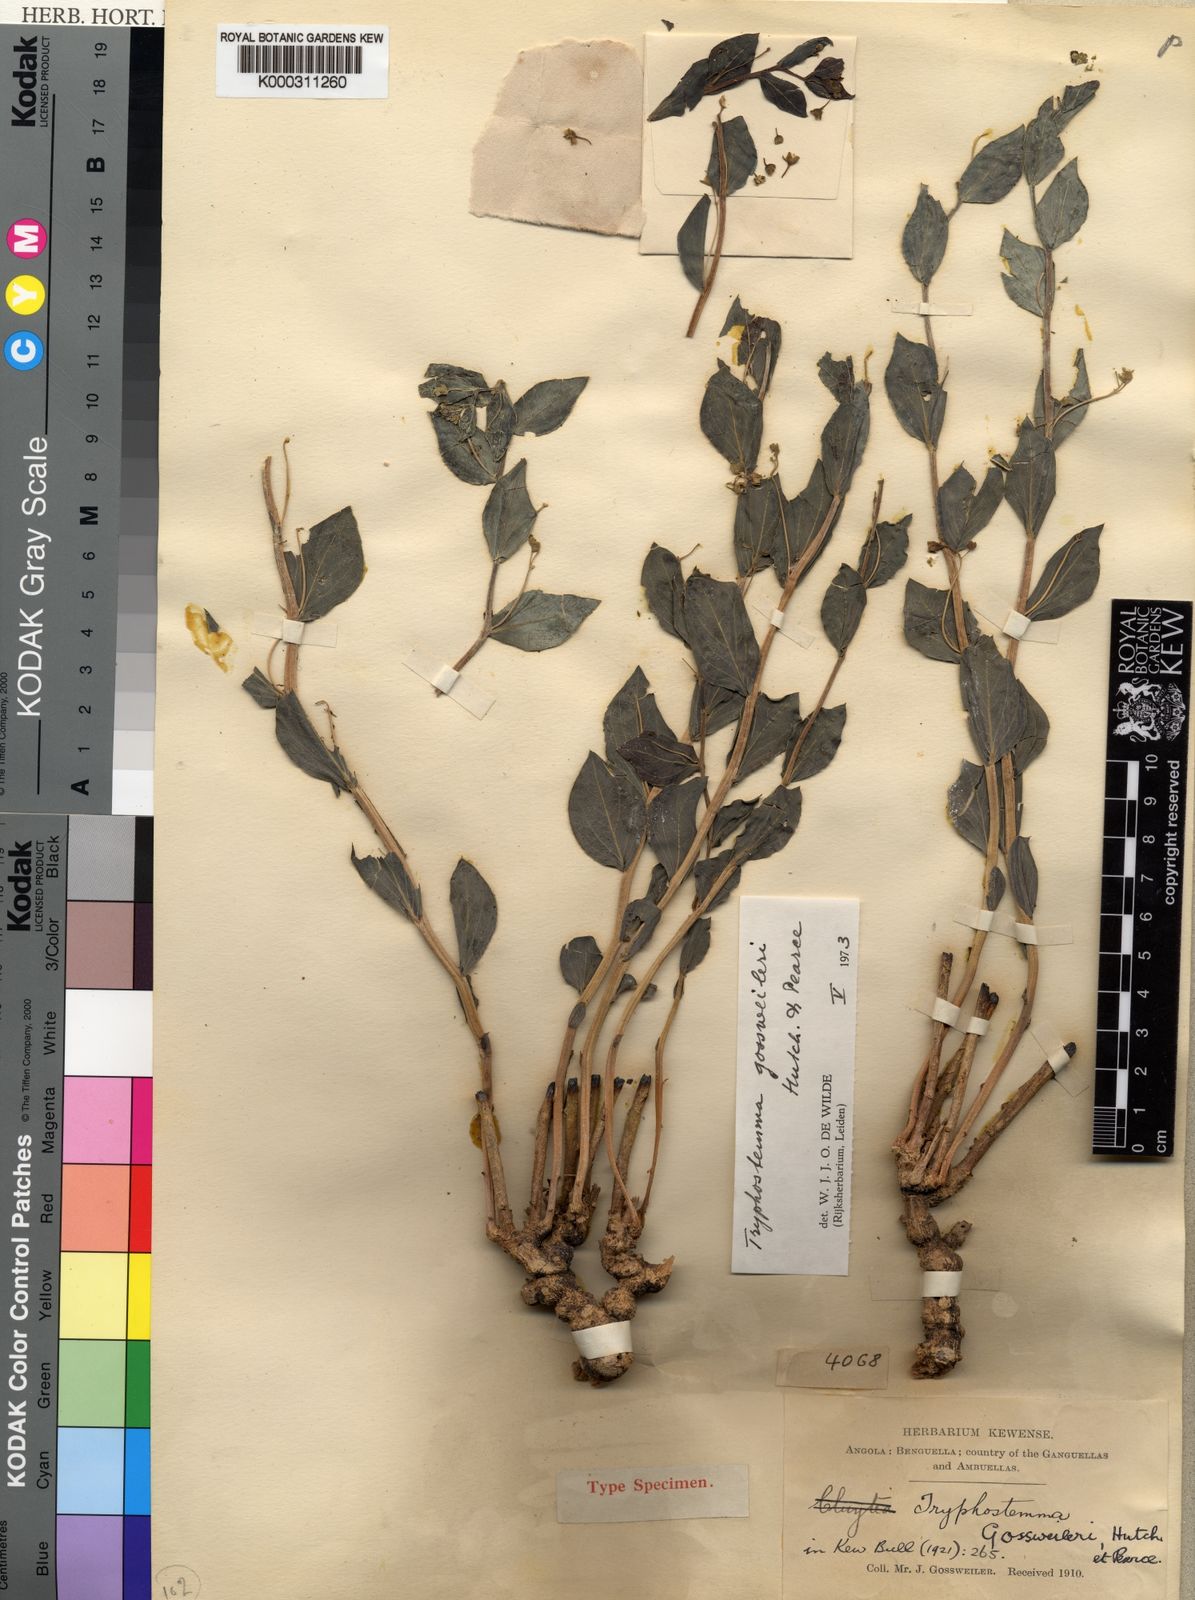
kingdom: Plantae
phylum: Tracheophyta
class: Magnoliopsida
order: Malpighiales
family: Passifloraceae
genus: Basananthe
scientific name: Basananthe gossweileri
